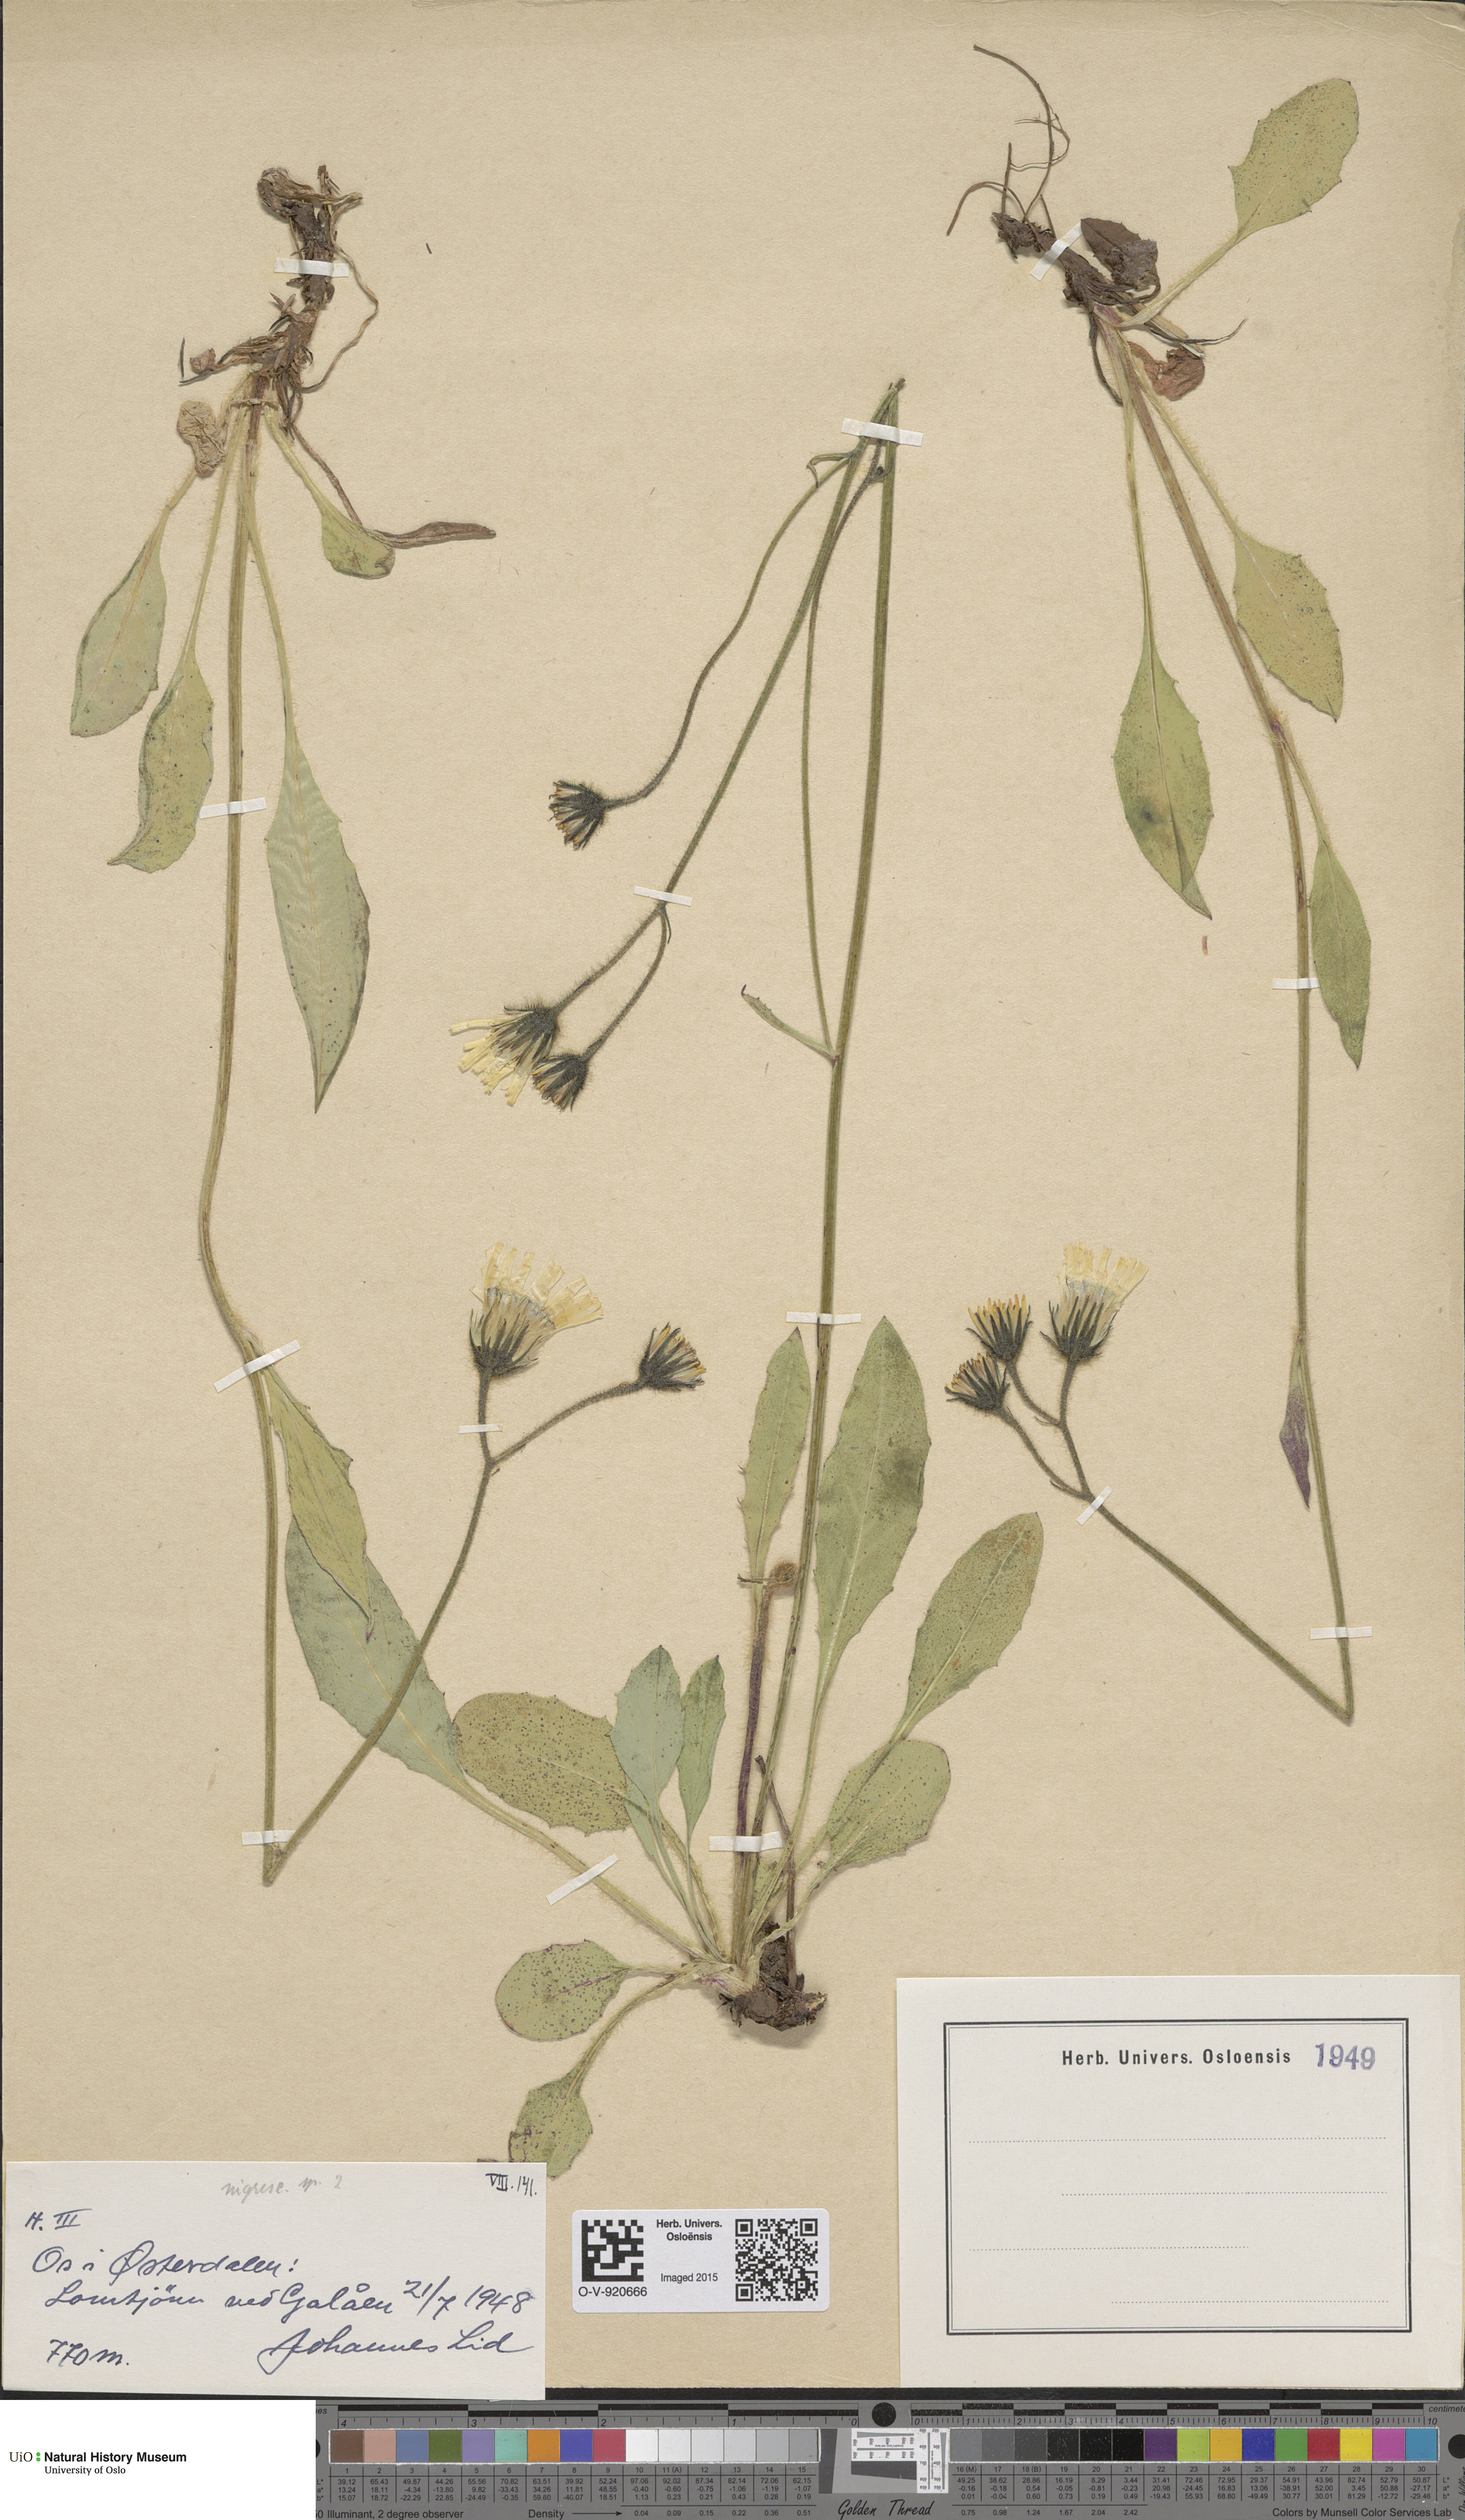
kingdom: Plantae
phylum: Tracheophyta
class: Magnoliopsida
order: Asterales
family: Asteraceae
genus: Hieracium
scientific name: Hieracium nigrescens
